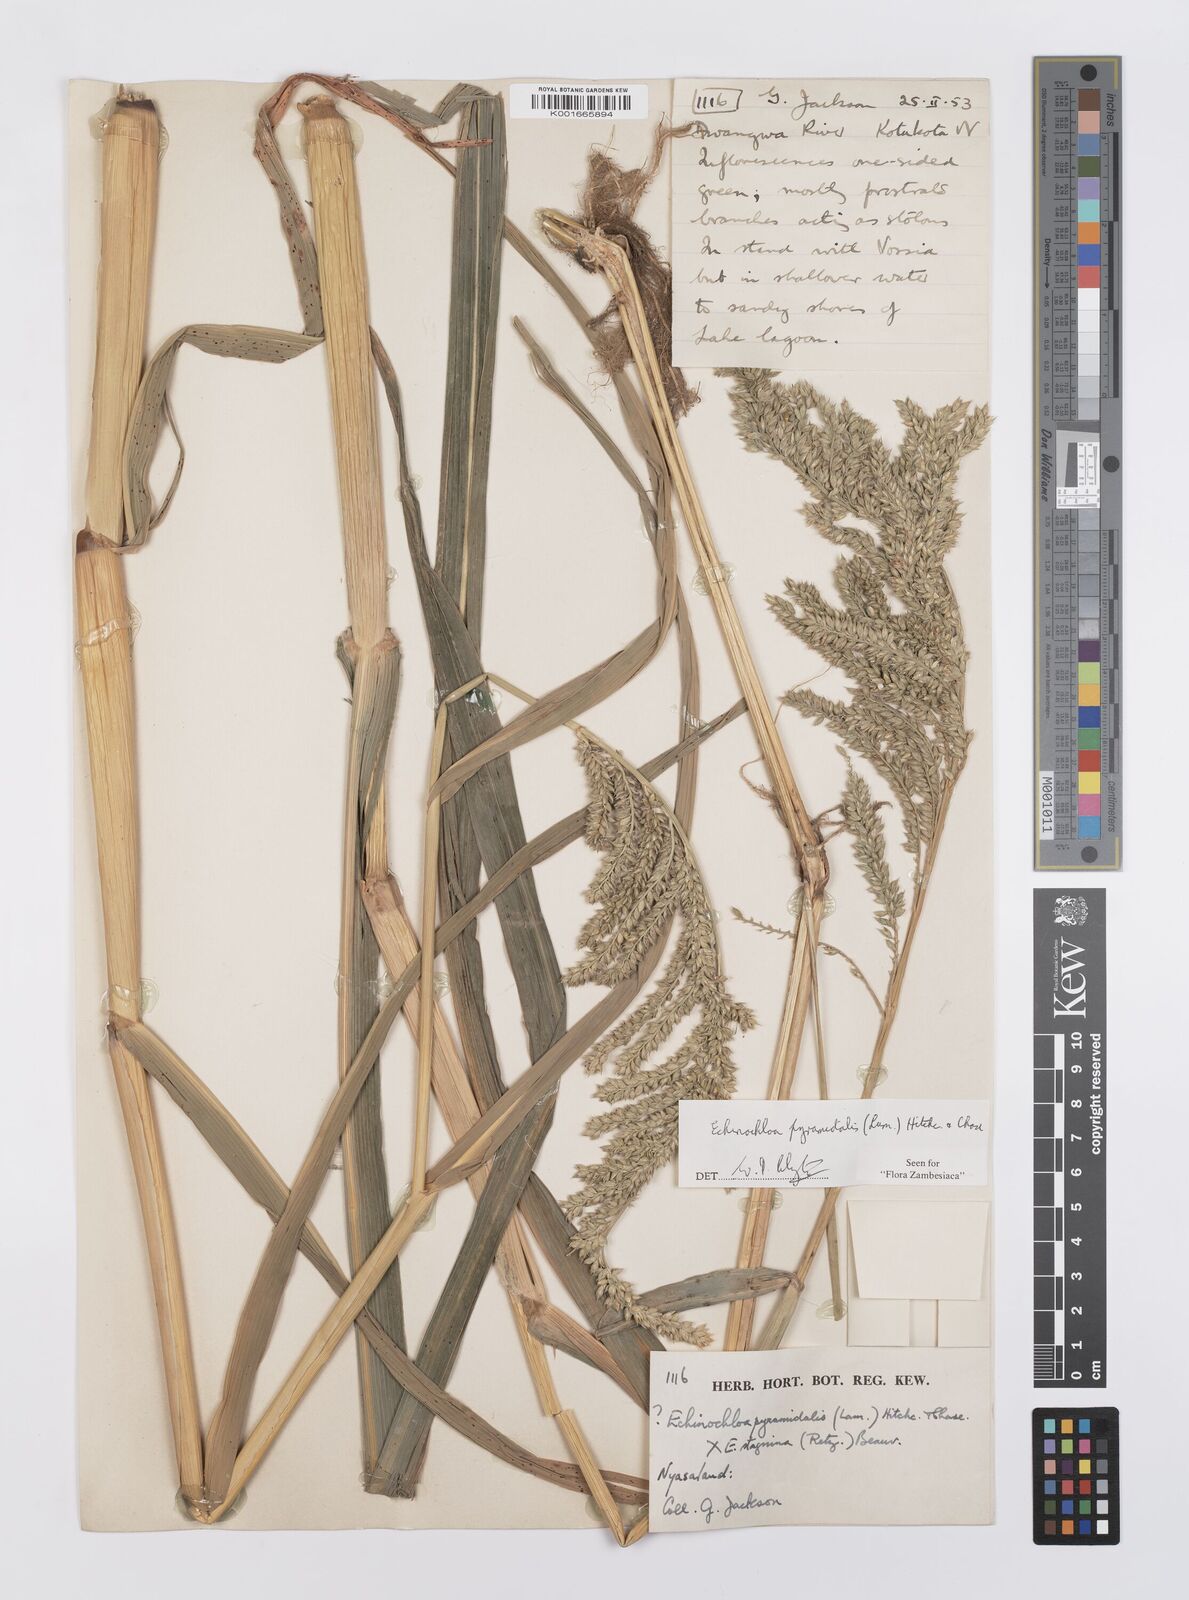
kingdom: Plantae
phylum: Tracheophyta
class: Liliopsida
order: Poales
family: Poaceae
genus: Echinochloa
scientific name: Echinochloa pyramidalis
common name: Antelope grass
